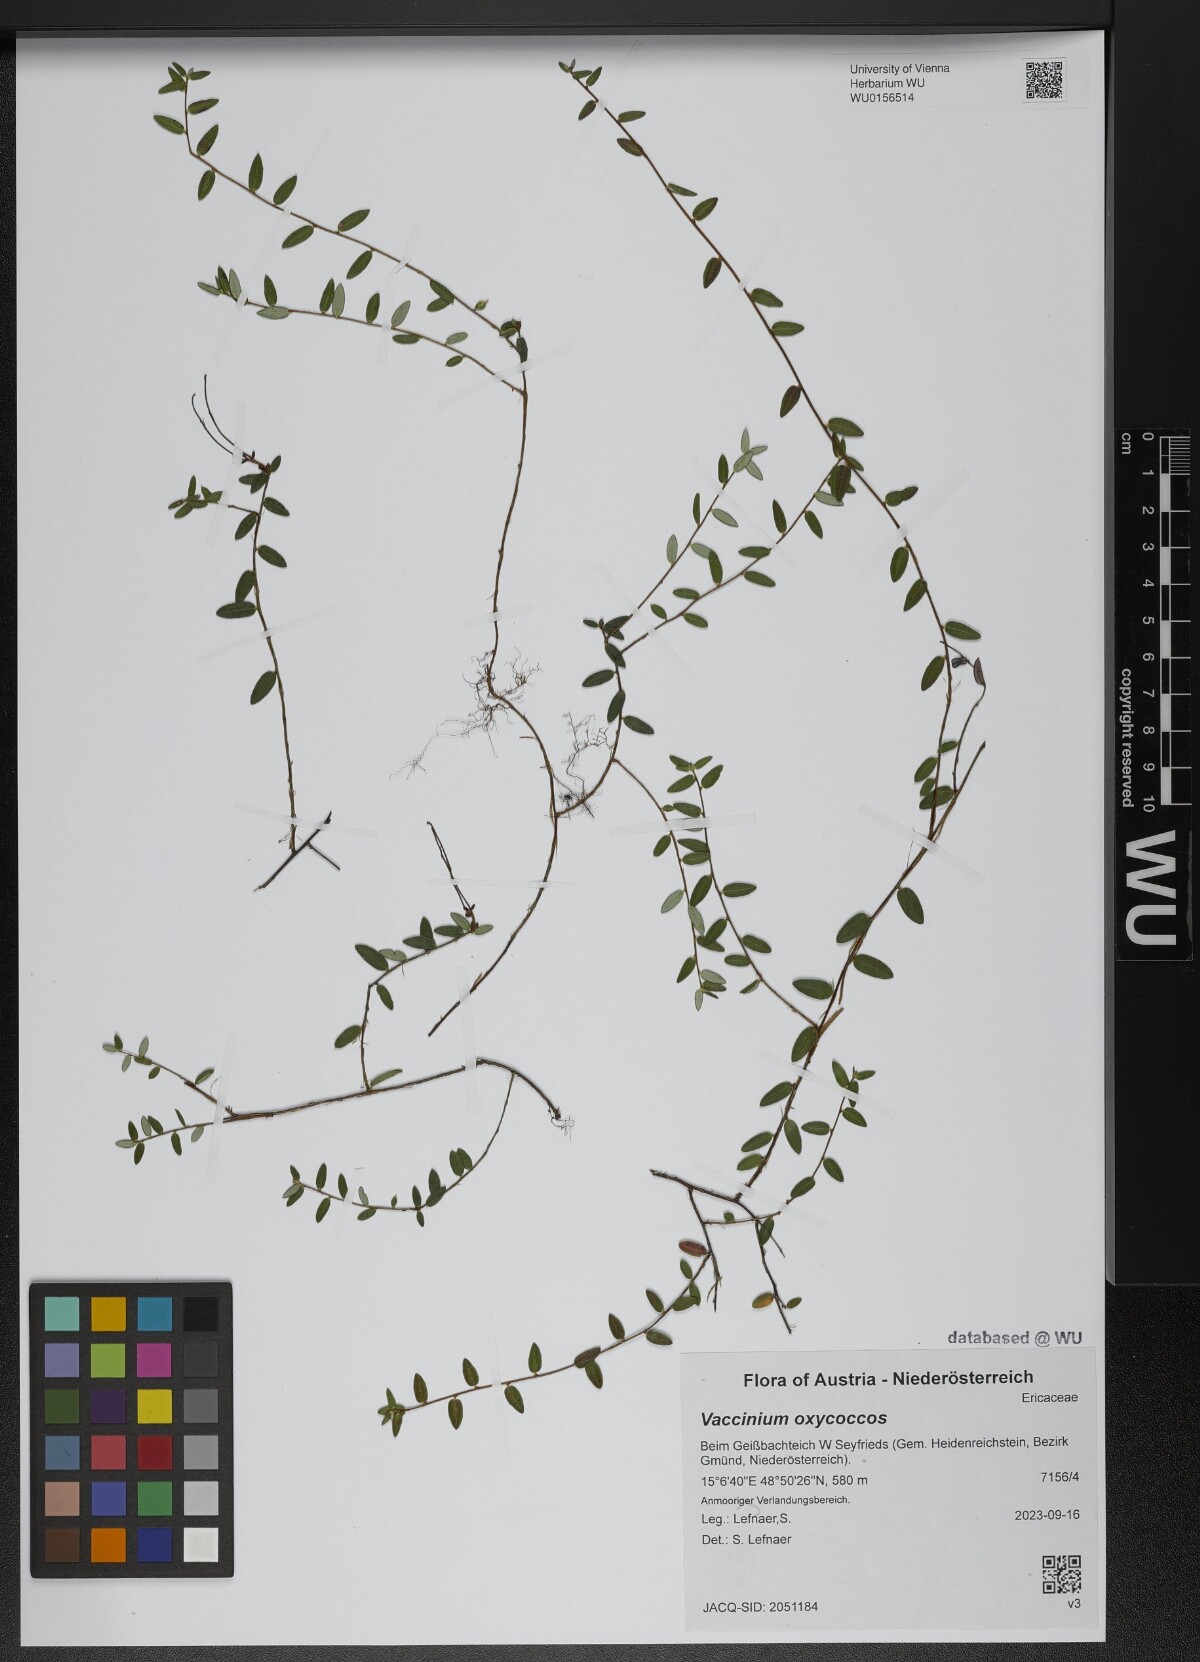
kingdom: Plantae
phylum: Tracheophyta
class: Magnoliopsida
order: Ericales
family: Ericaceae
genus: Vaccinium
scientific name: Vaccinium oxycoccos
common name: Cranberry
